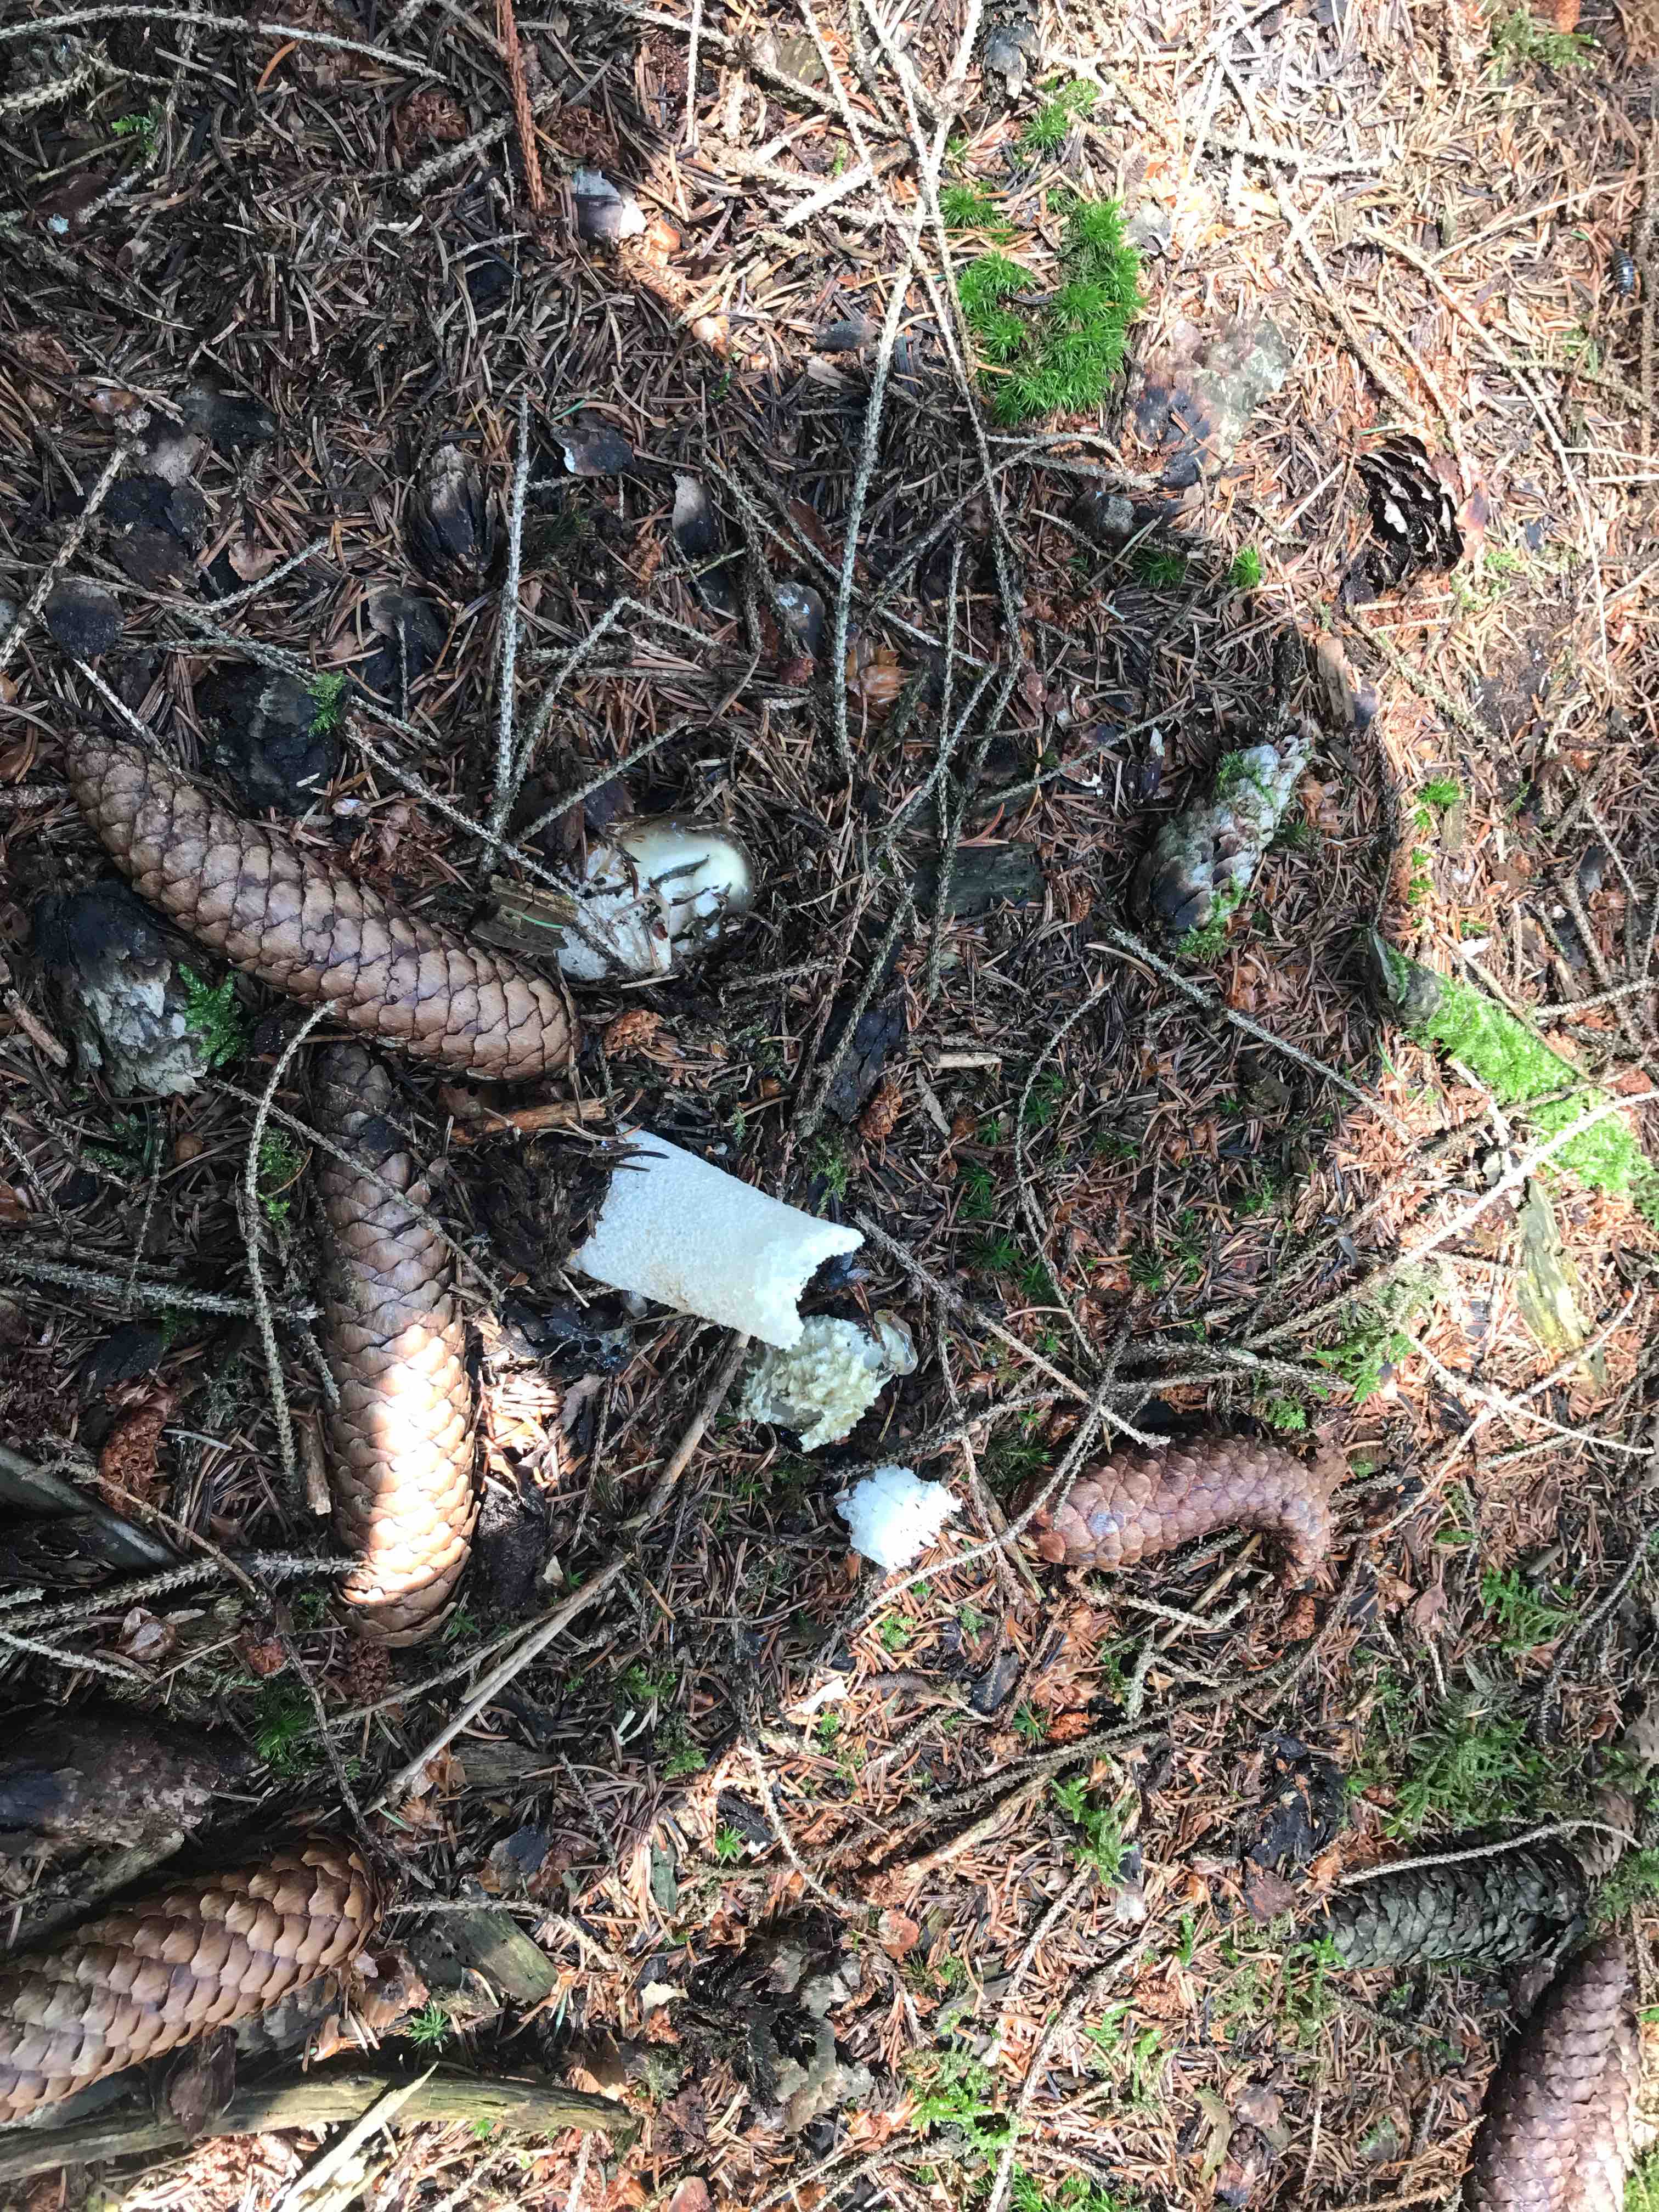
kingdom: Fungi
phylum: Basidiomycota
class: Agaricomycetes
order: Phallales
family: Phallaceae
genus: Phallus
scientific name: Phallus impudicus
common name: almindelig stinksvamp
